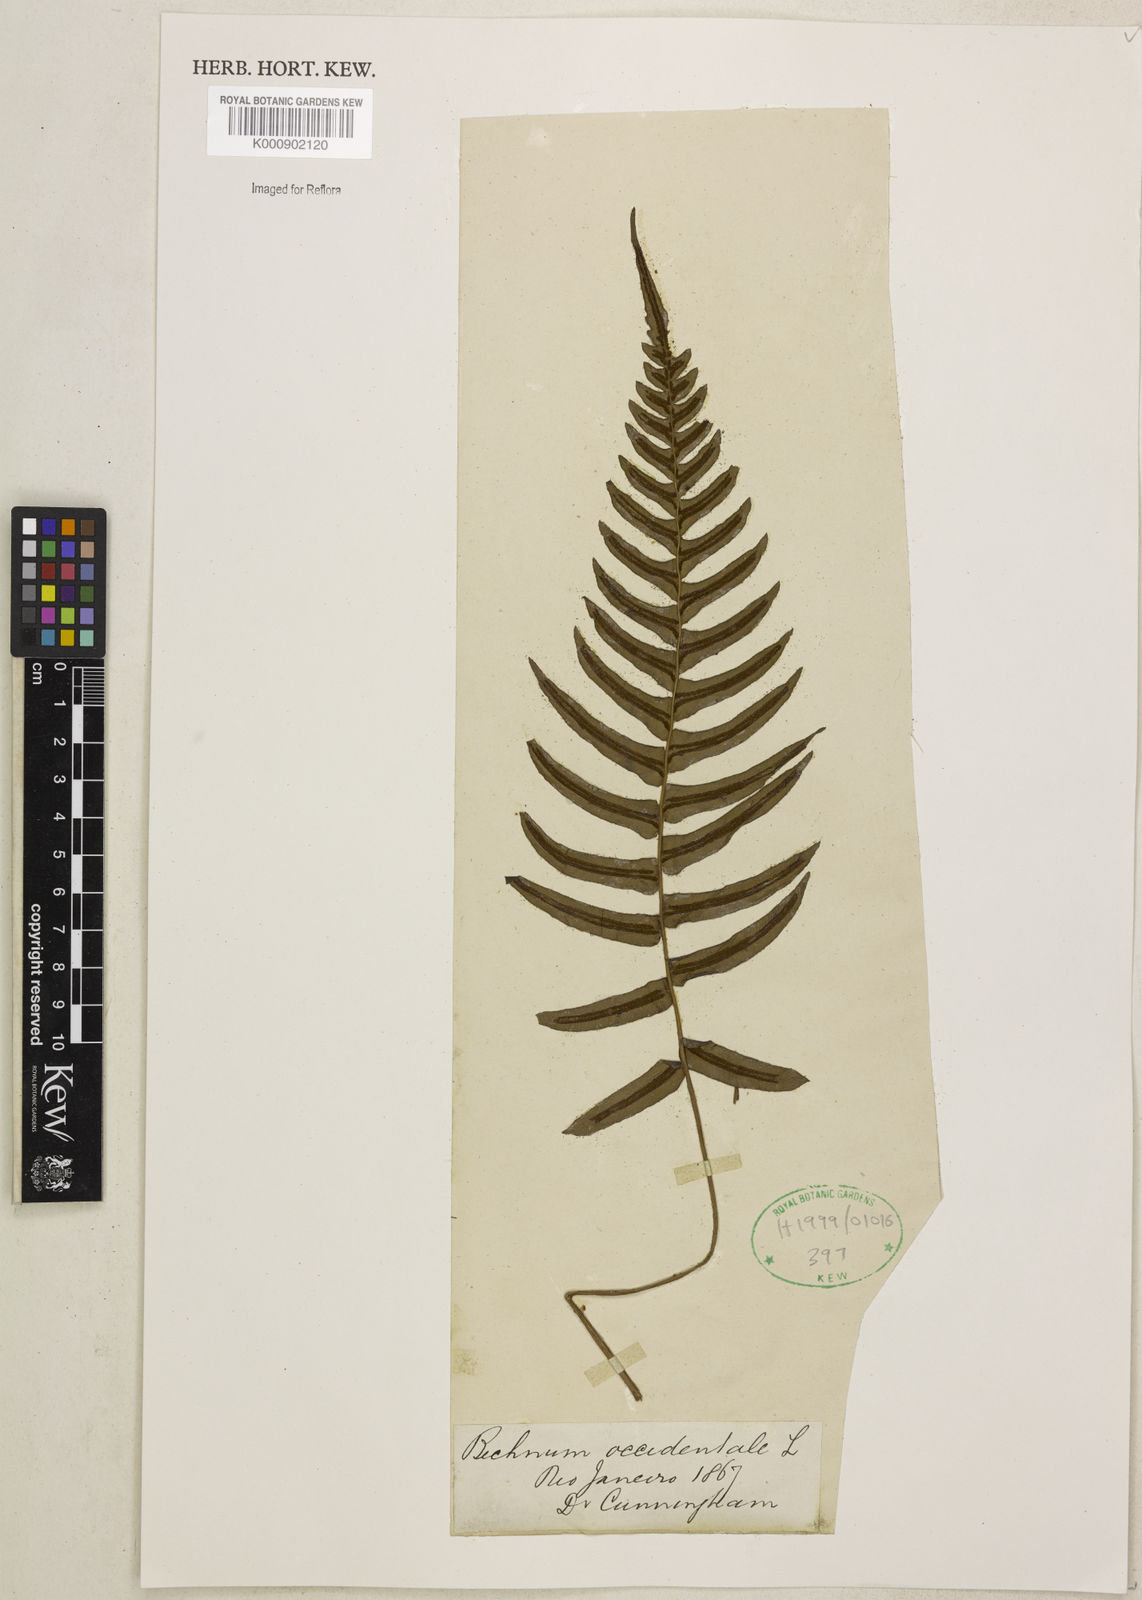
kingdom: Plantae
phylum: Tracheophyta
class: Polypodiopsida
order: Polypodiales
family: Blechnaceae
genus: Blechnum
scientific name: Blechnum occidentale
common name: Hammock fern
